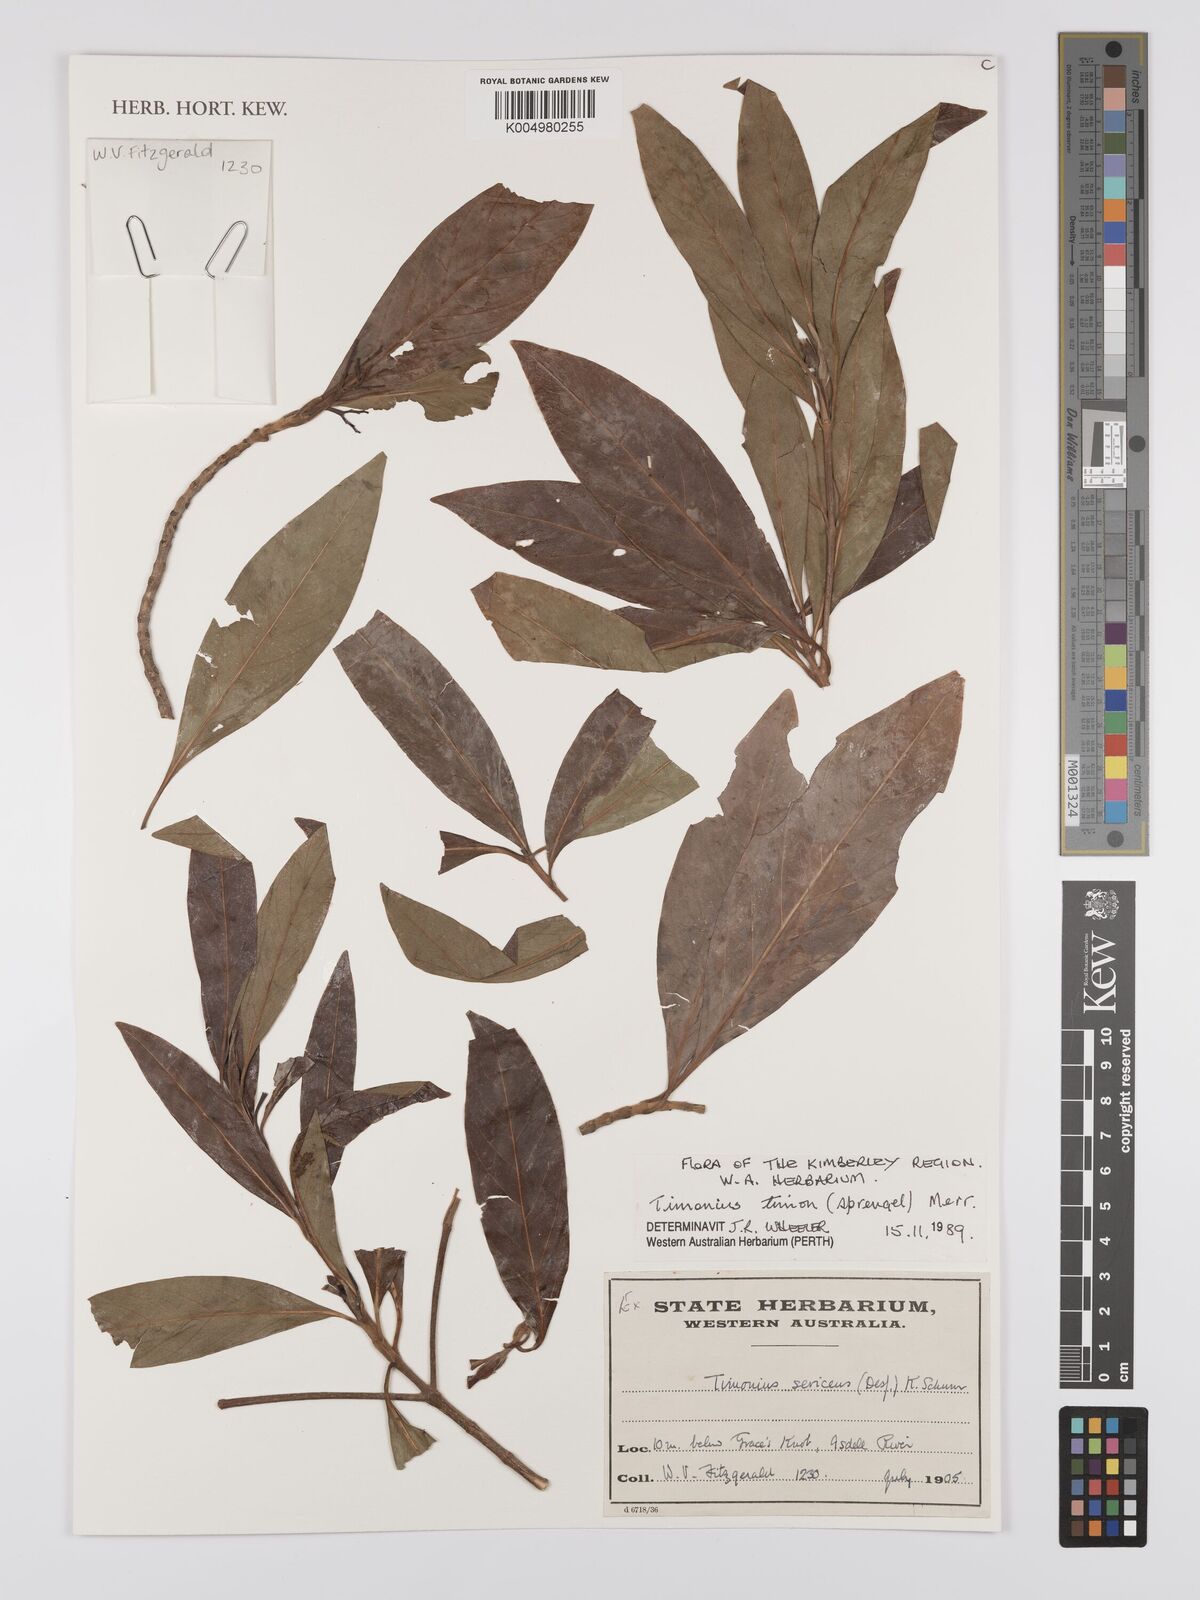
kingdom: Plantae
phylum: Tracheophyta
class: Magnoliopsida
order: Gentianales
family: Rubiaceae
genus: Timonius
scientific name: Timonius timon
